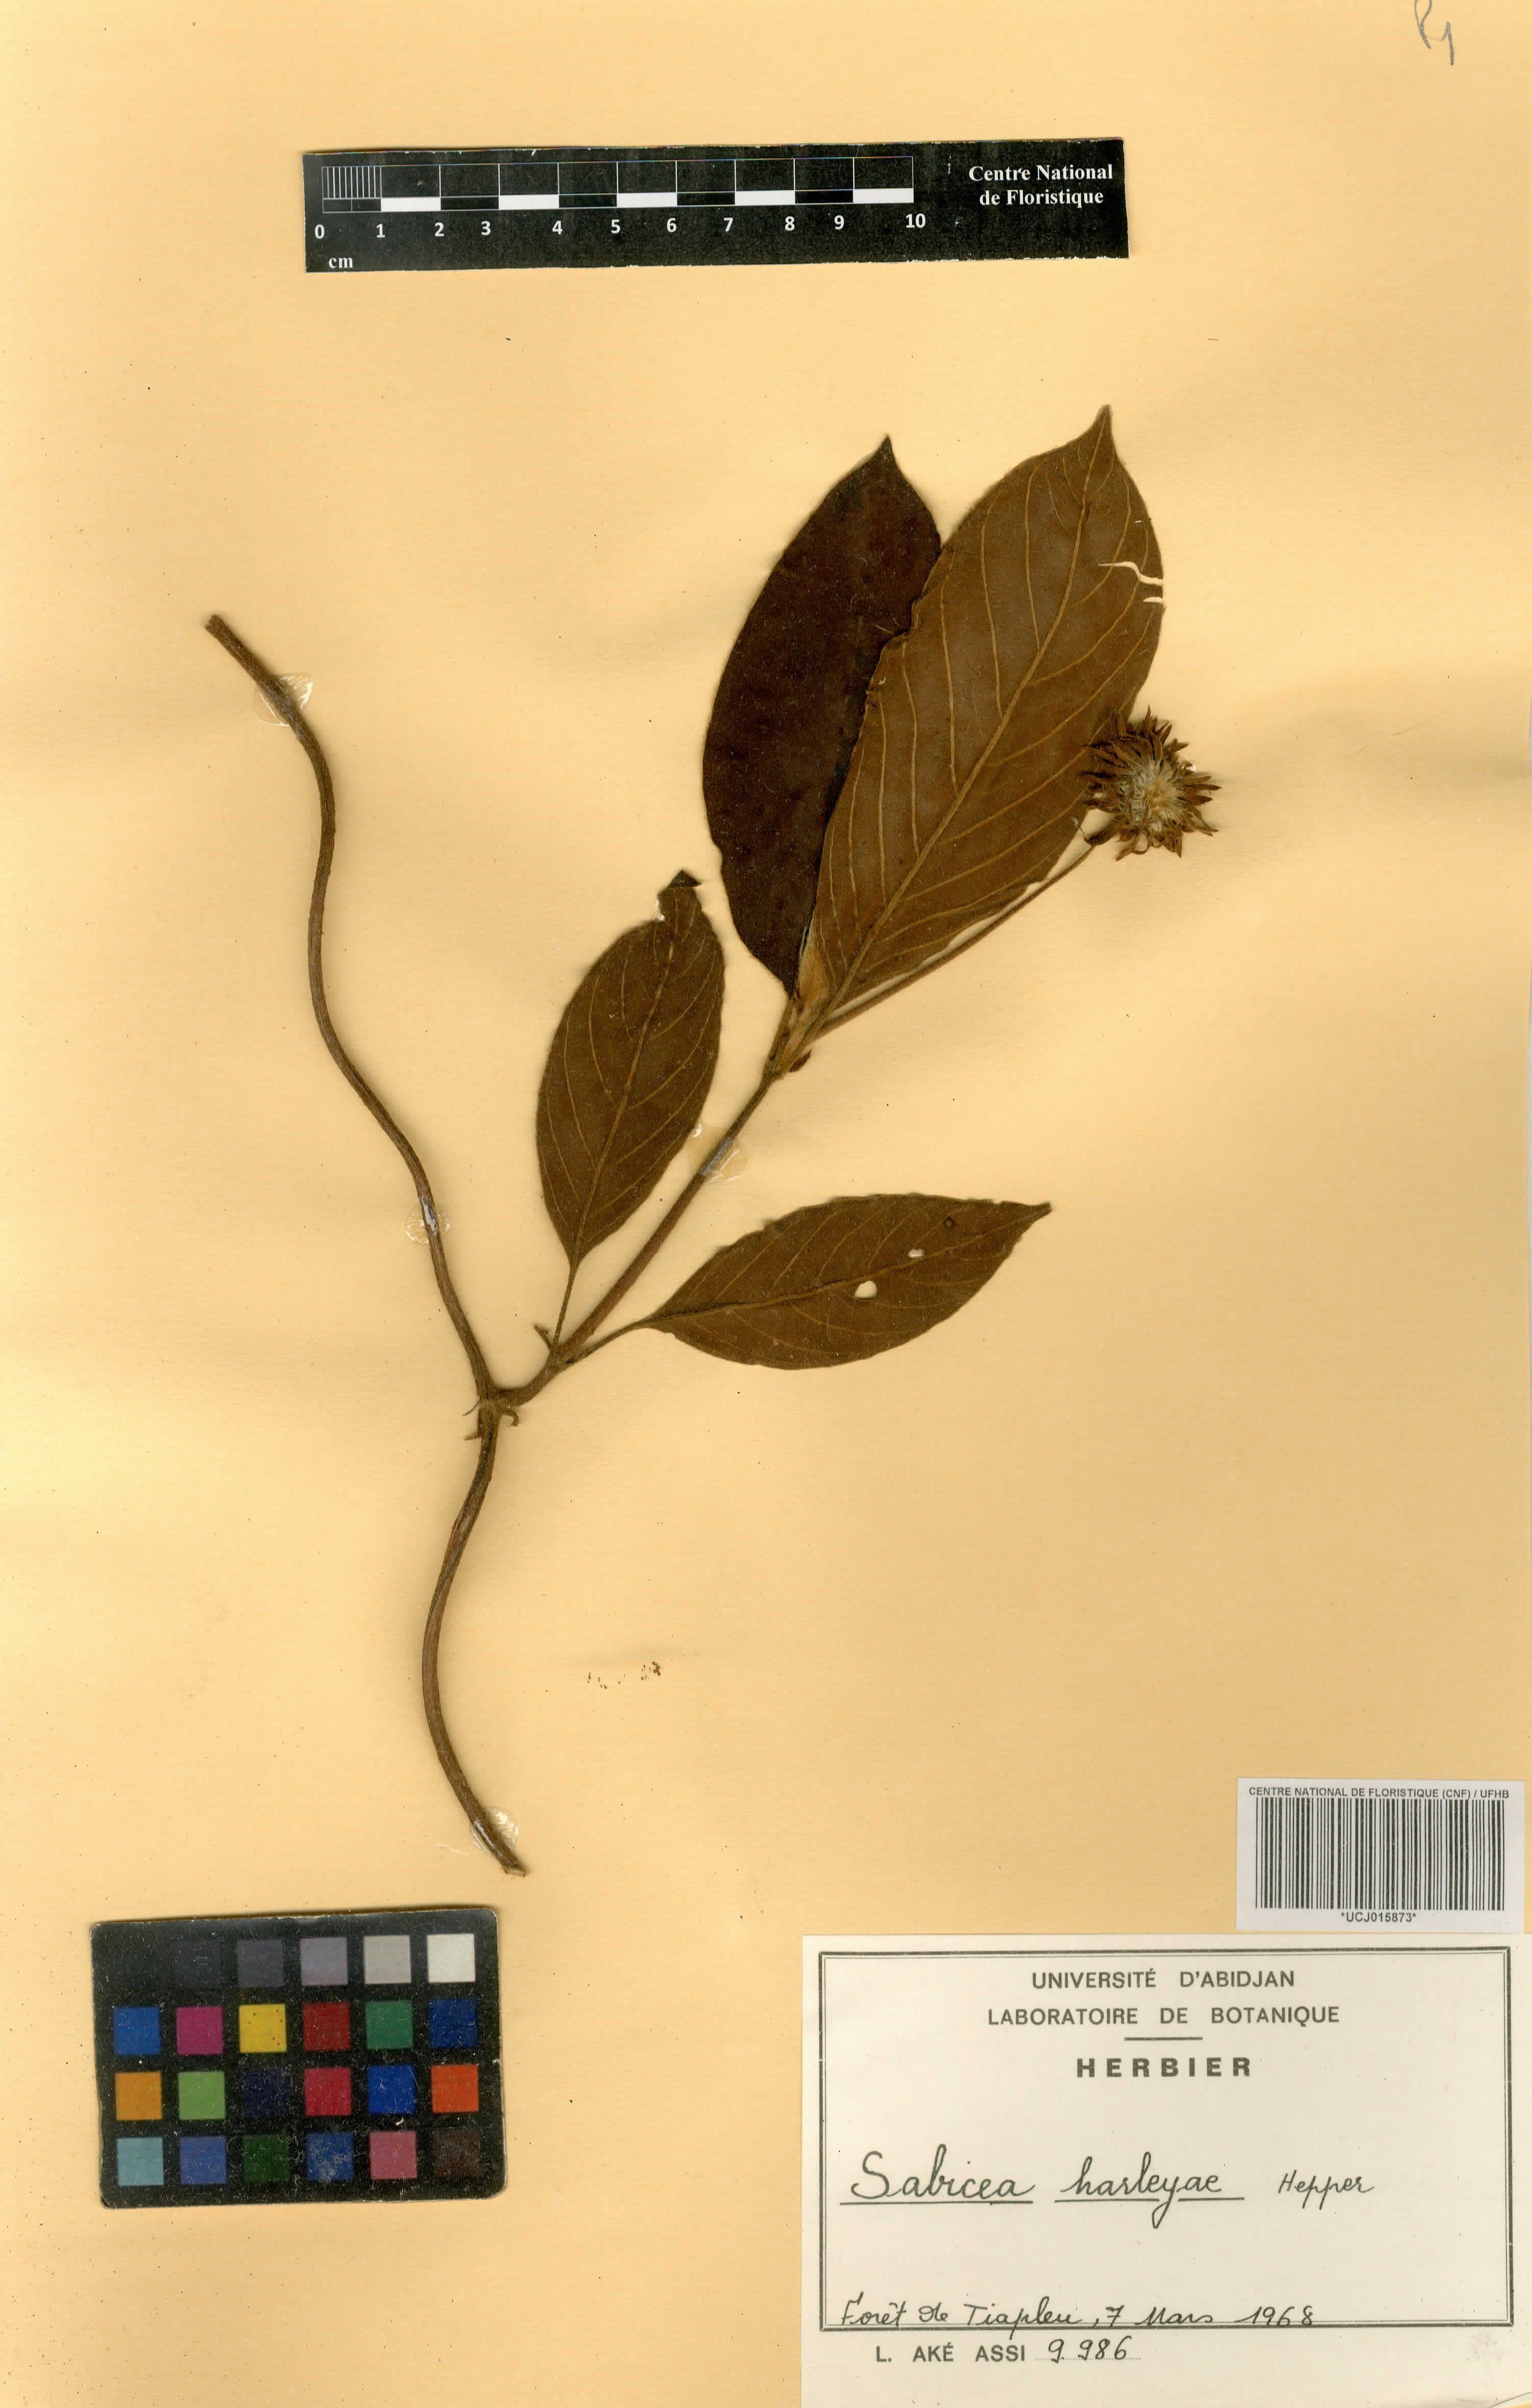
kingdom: Plantae
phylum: Tracheophyta
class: Magnoliopsida
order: Gentianales
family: Rubiaceae
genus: Sabicea
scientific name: Sabicea harleyae
